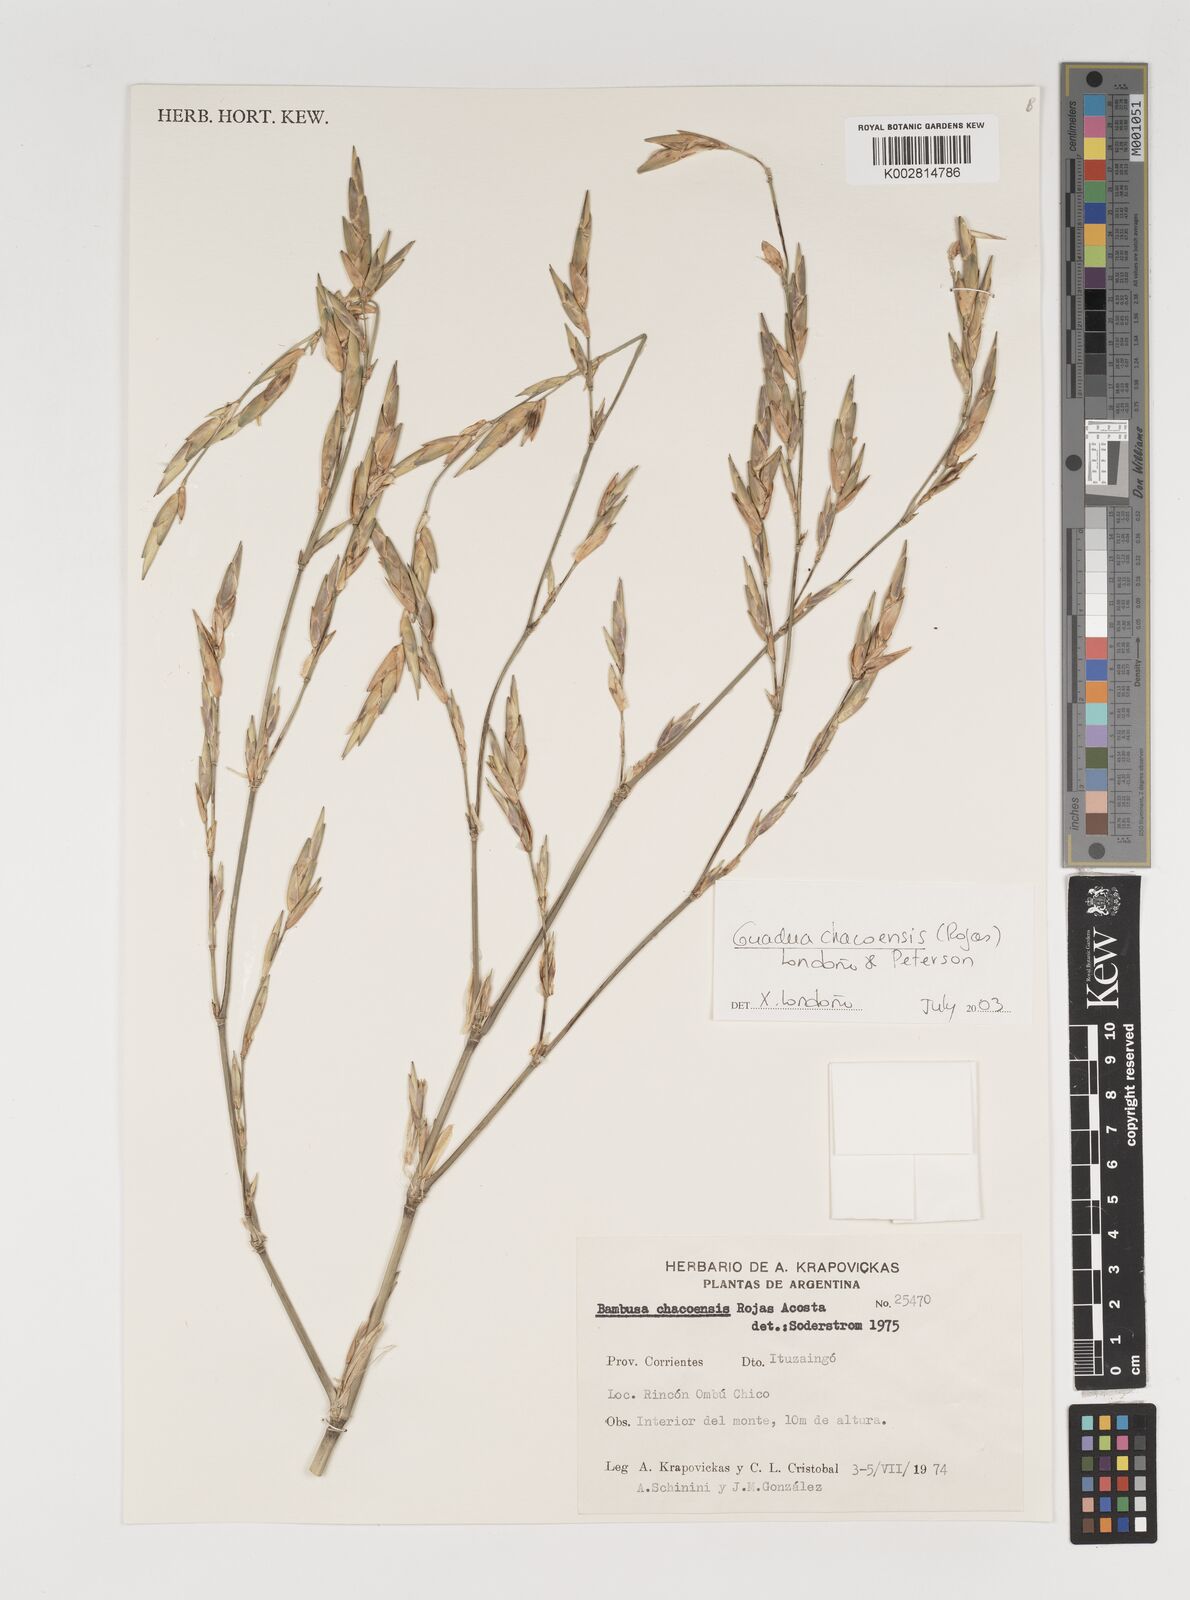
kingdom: Plantae
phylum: Tracheophyta
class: Liliopsida
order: Poales
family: Poaceae
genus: Guadua
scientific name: Guadua chacoensis
